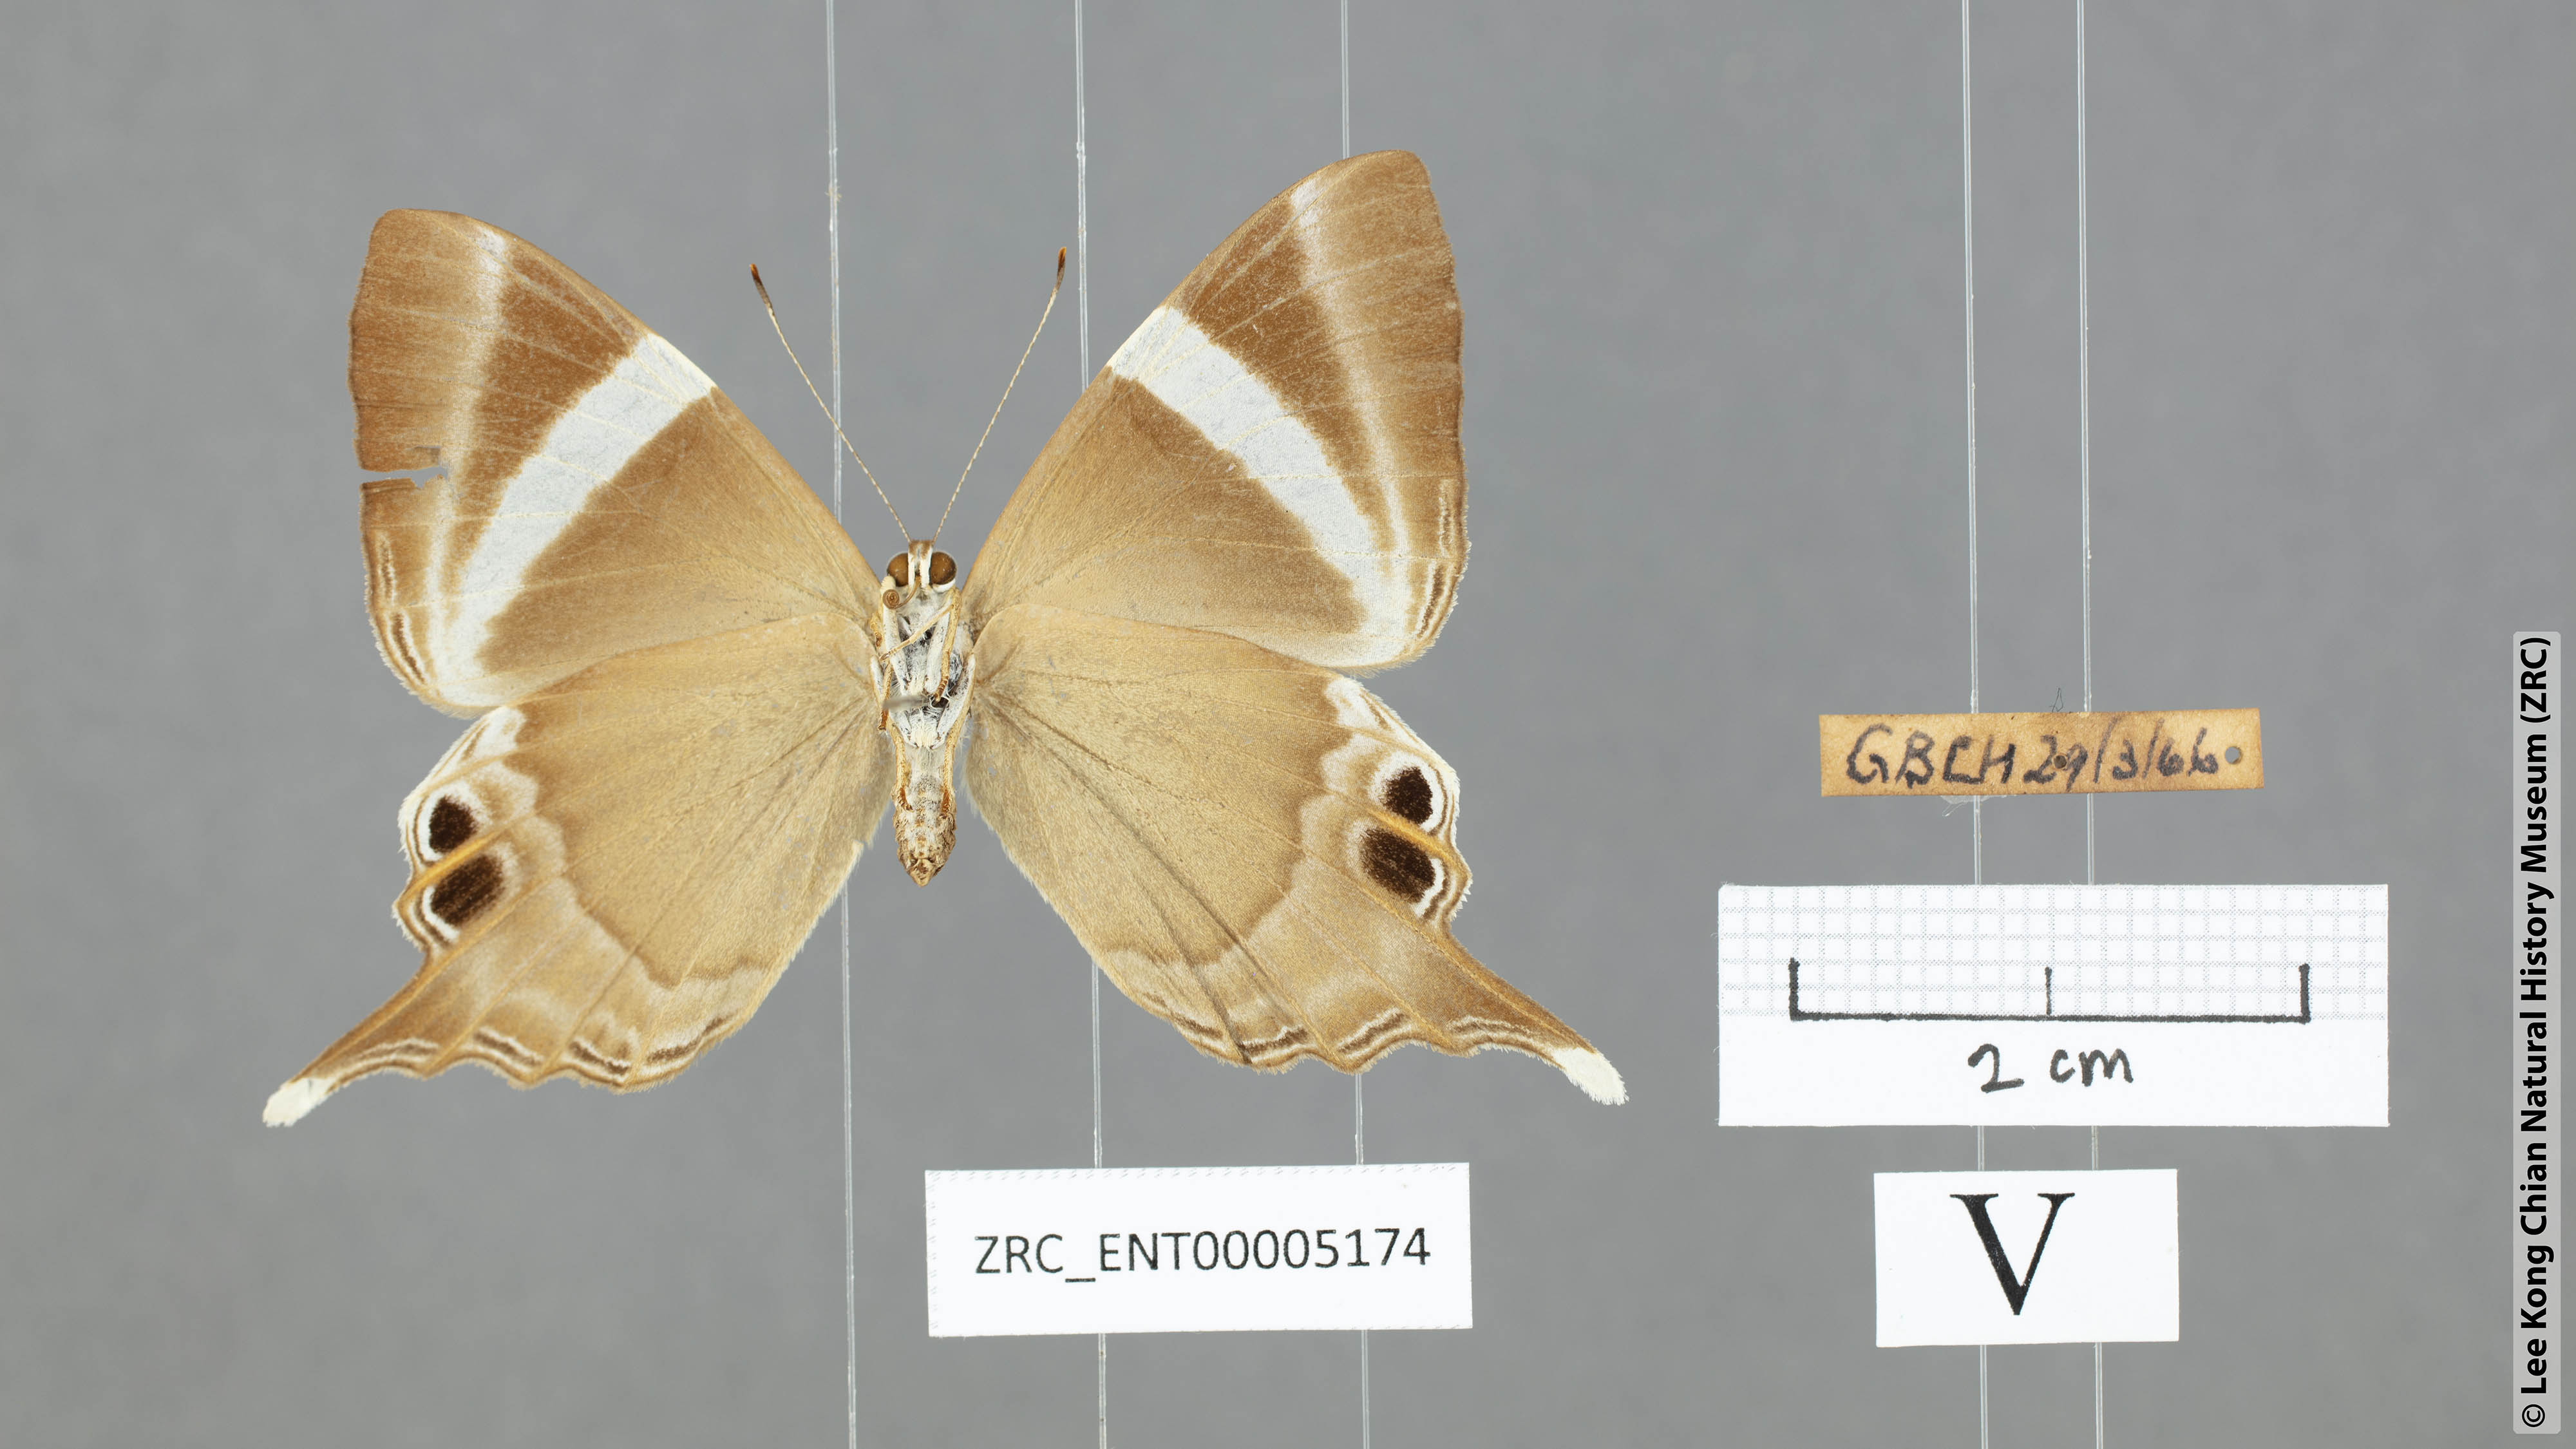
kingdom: Animalia
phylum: Arthropoda
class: Insecta
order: Lepidoptera
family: Riodinidae
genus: Archigenes
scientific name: Archigenes neophron
